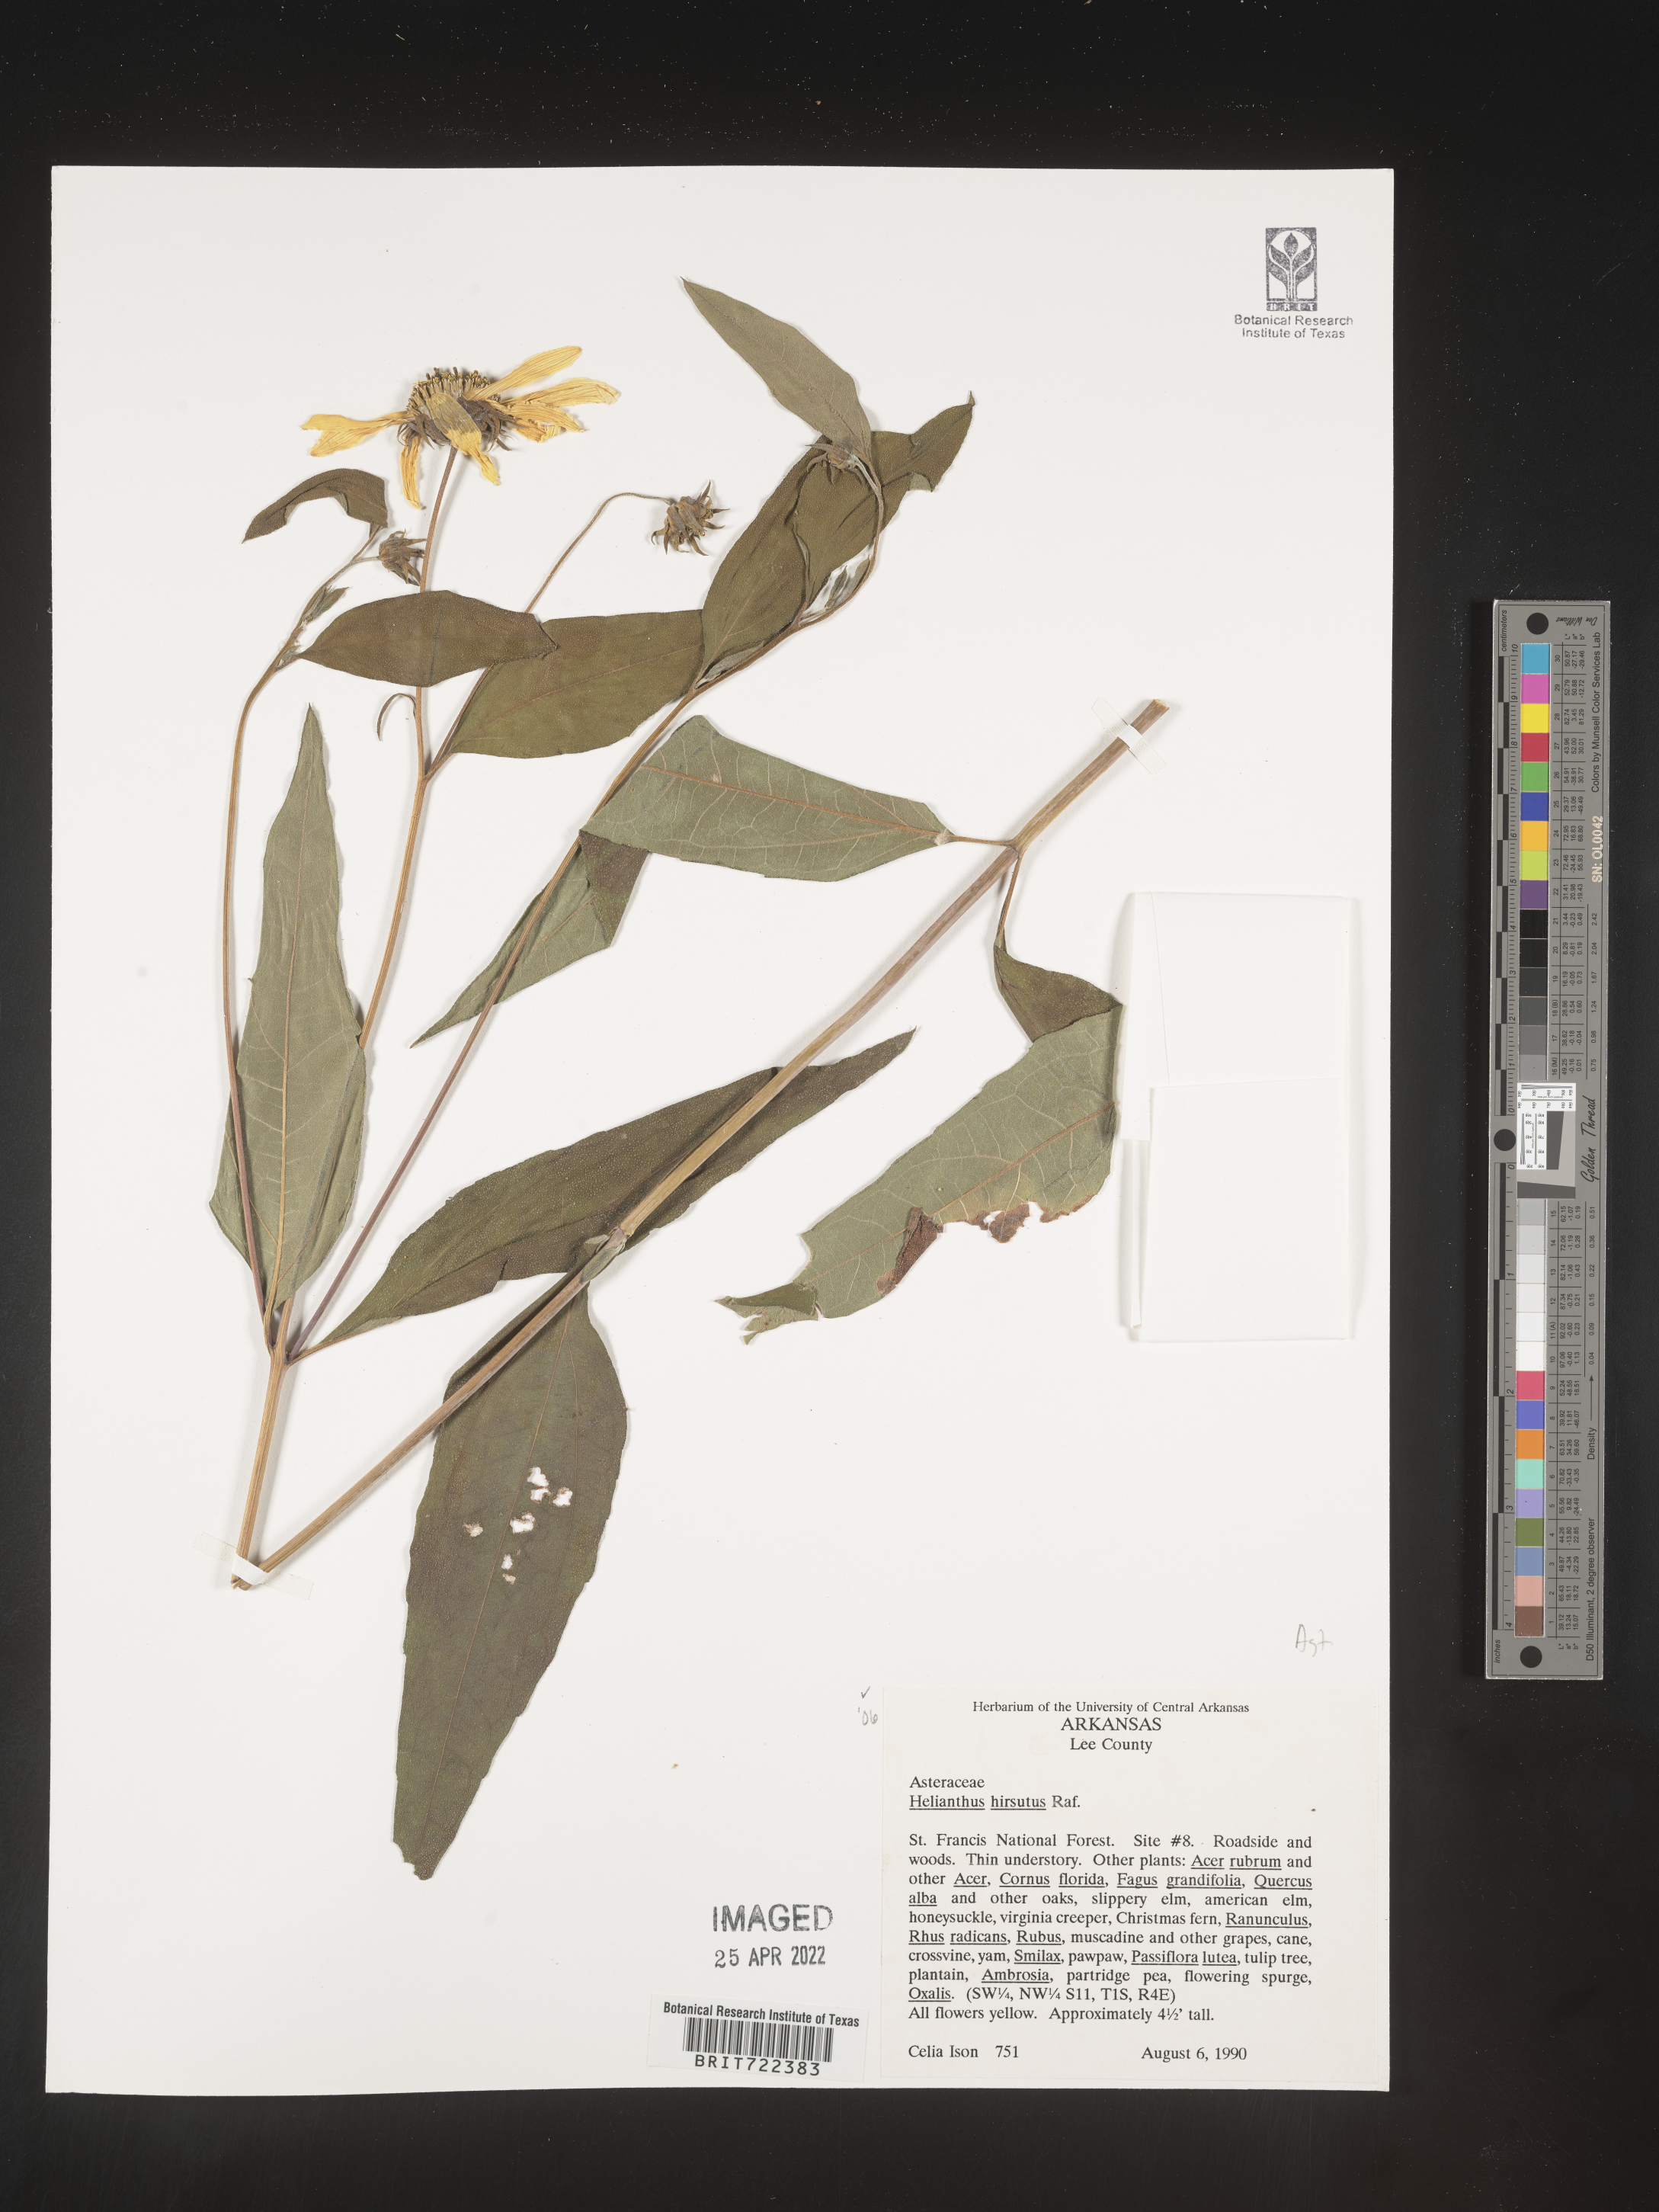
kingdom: Plantae
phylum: Tracheophyta
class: Magnoliopsida
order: Asterales
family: Asteraceae
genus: Helianthus
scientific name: Helianthus hirsutus
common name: Hairy sunflower
